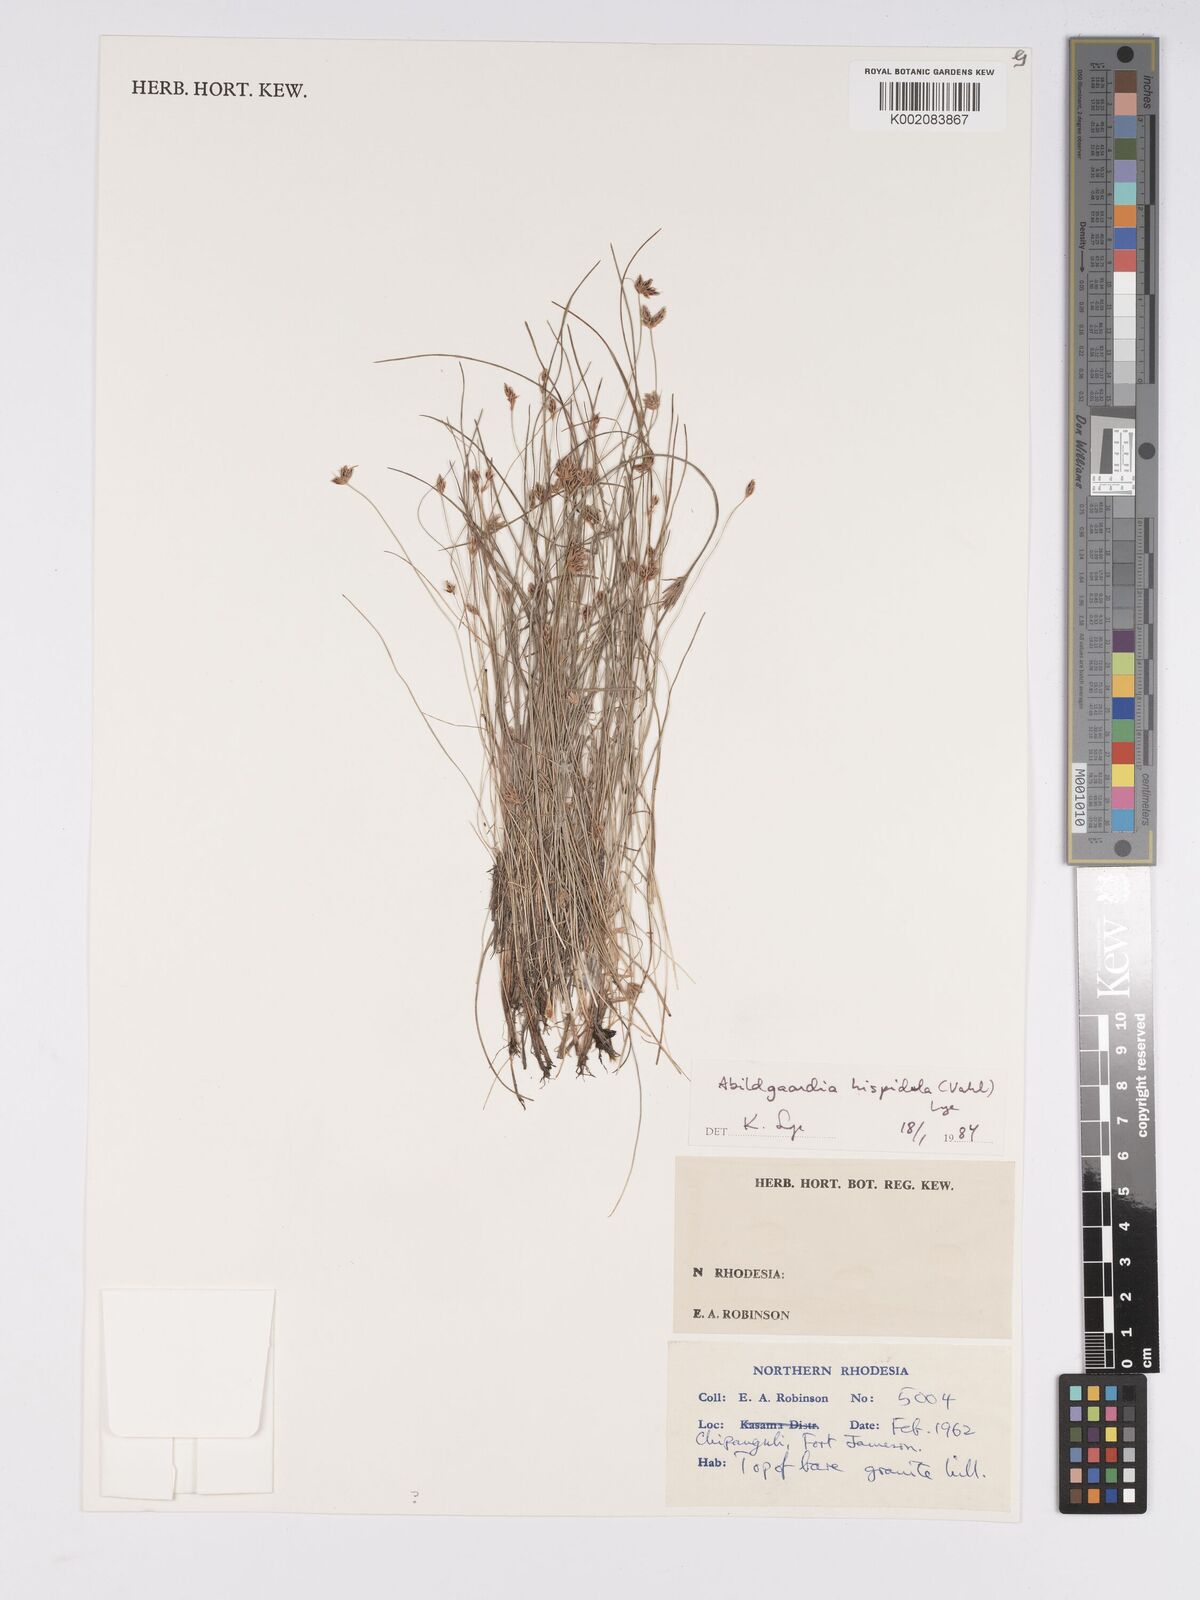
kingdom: Plantae
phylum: Tracheophyta
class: Liliopsida
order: Poales
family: Cyperaceae
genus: Bulbostylis
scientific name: Bulbostylis hispidula
